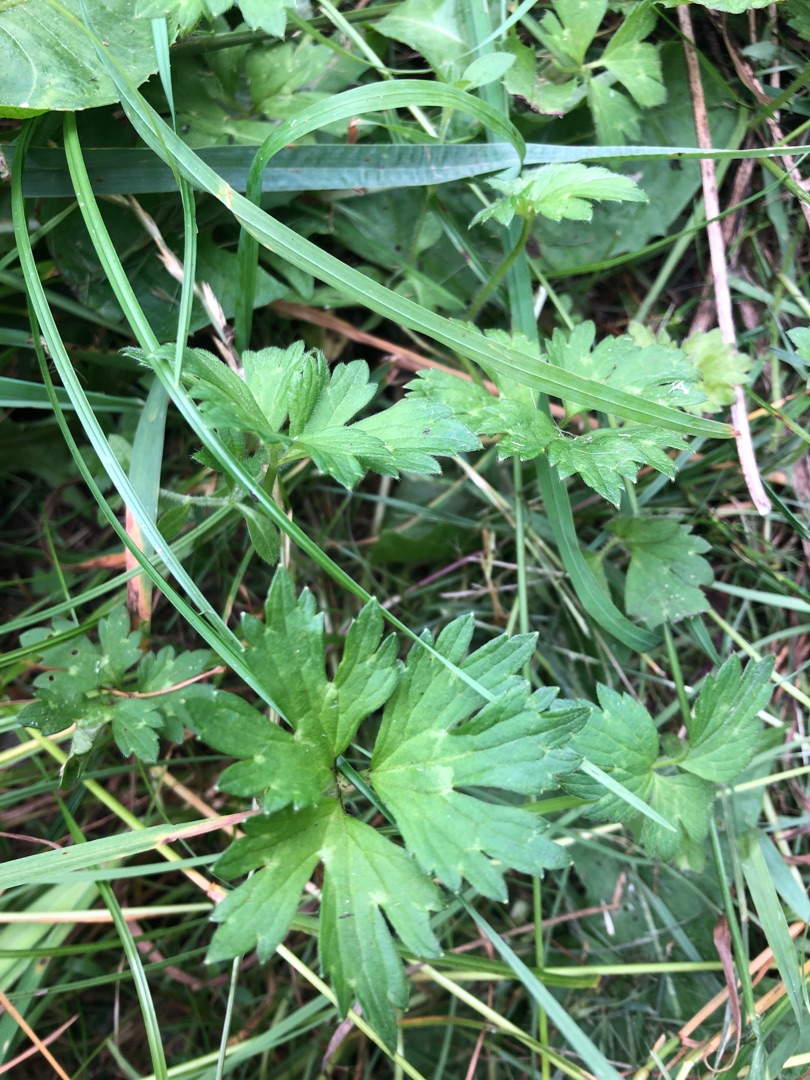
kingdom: Plantae
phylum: Tracheophyta
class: Magnoliopsida
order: Ranunculales
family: Ranunculaceae
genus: Ranunculus
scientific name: Ranunculus repens
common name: Lav ranunkel
